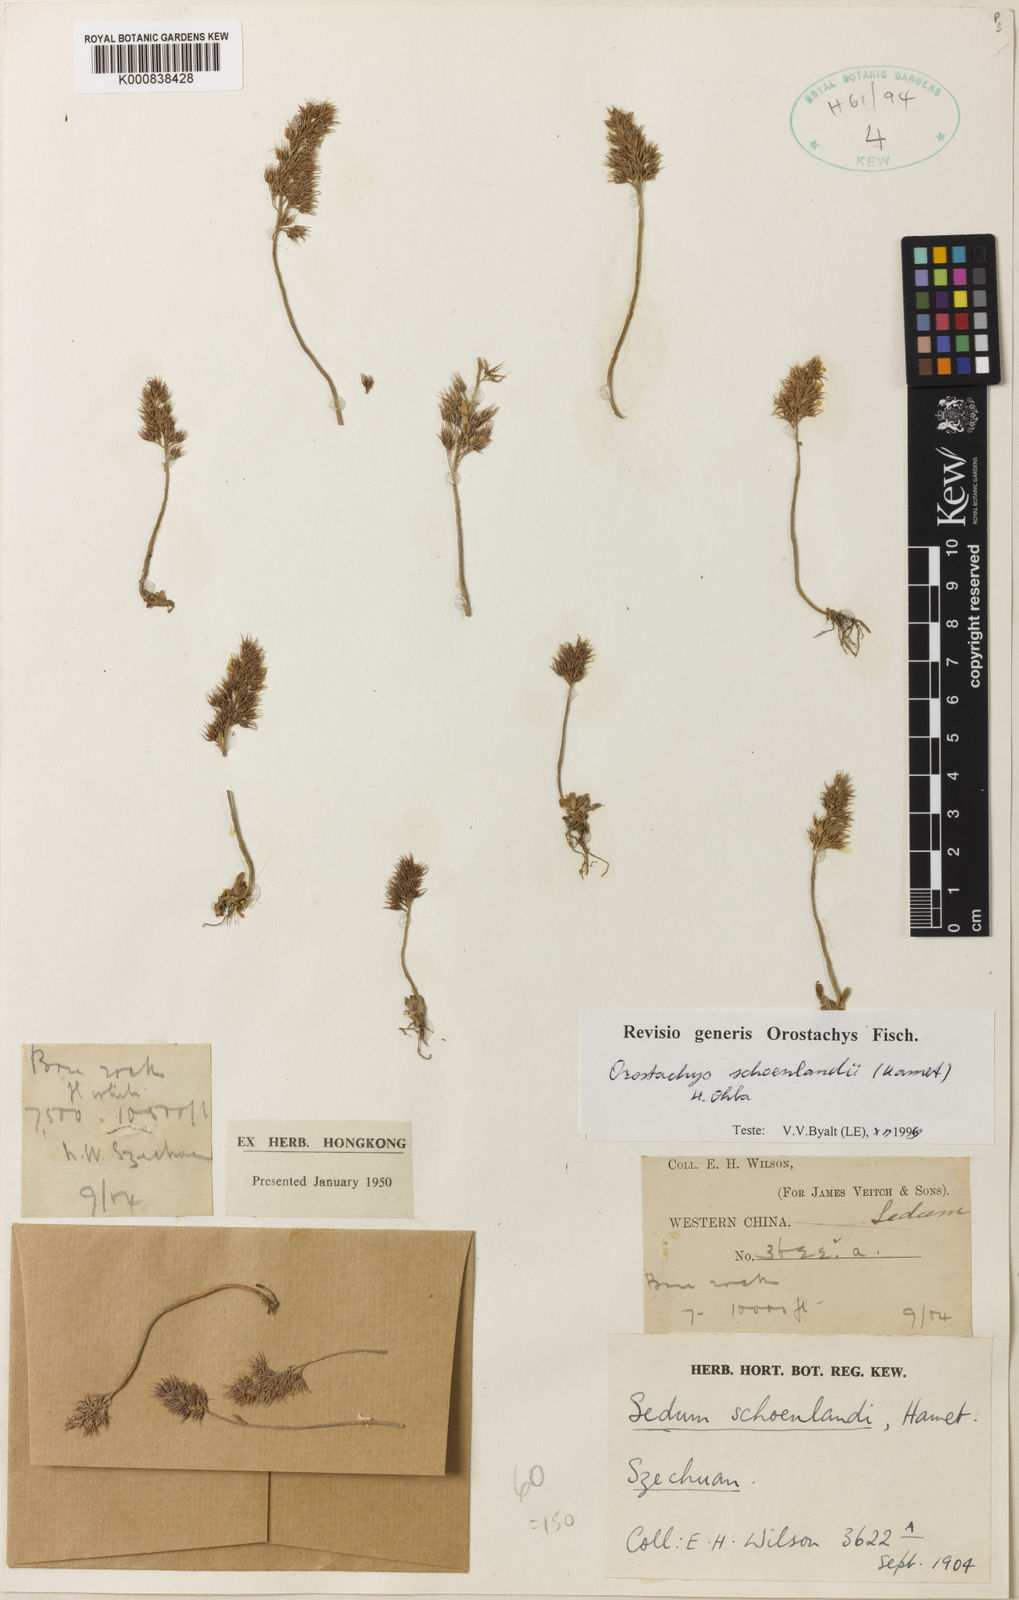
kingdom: Plantae
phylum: Tracheophyta
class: Magnoliopsida
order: Saxifragales
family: Crassulaceae
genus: Orostachys
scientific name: Orostachys schoenlandii
